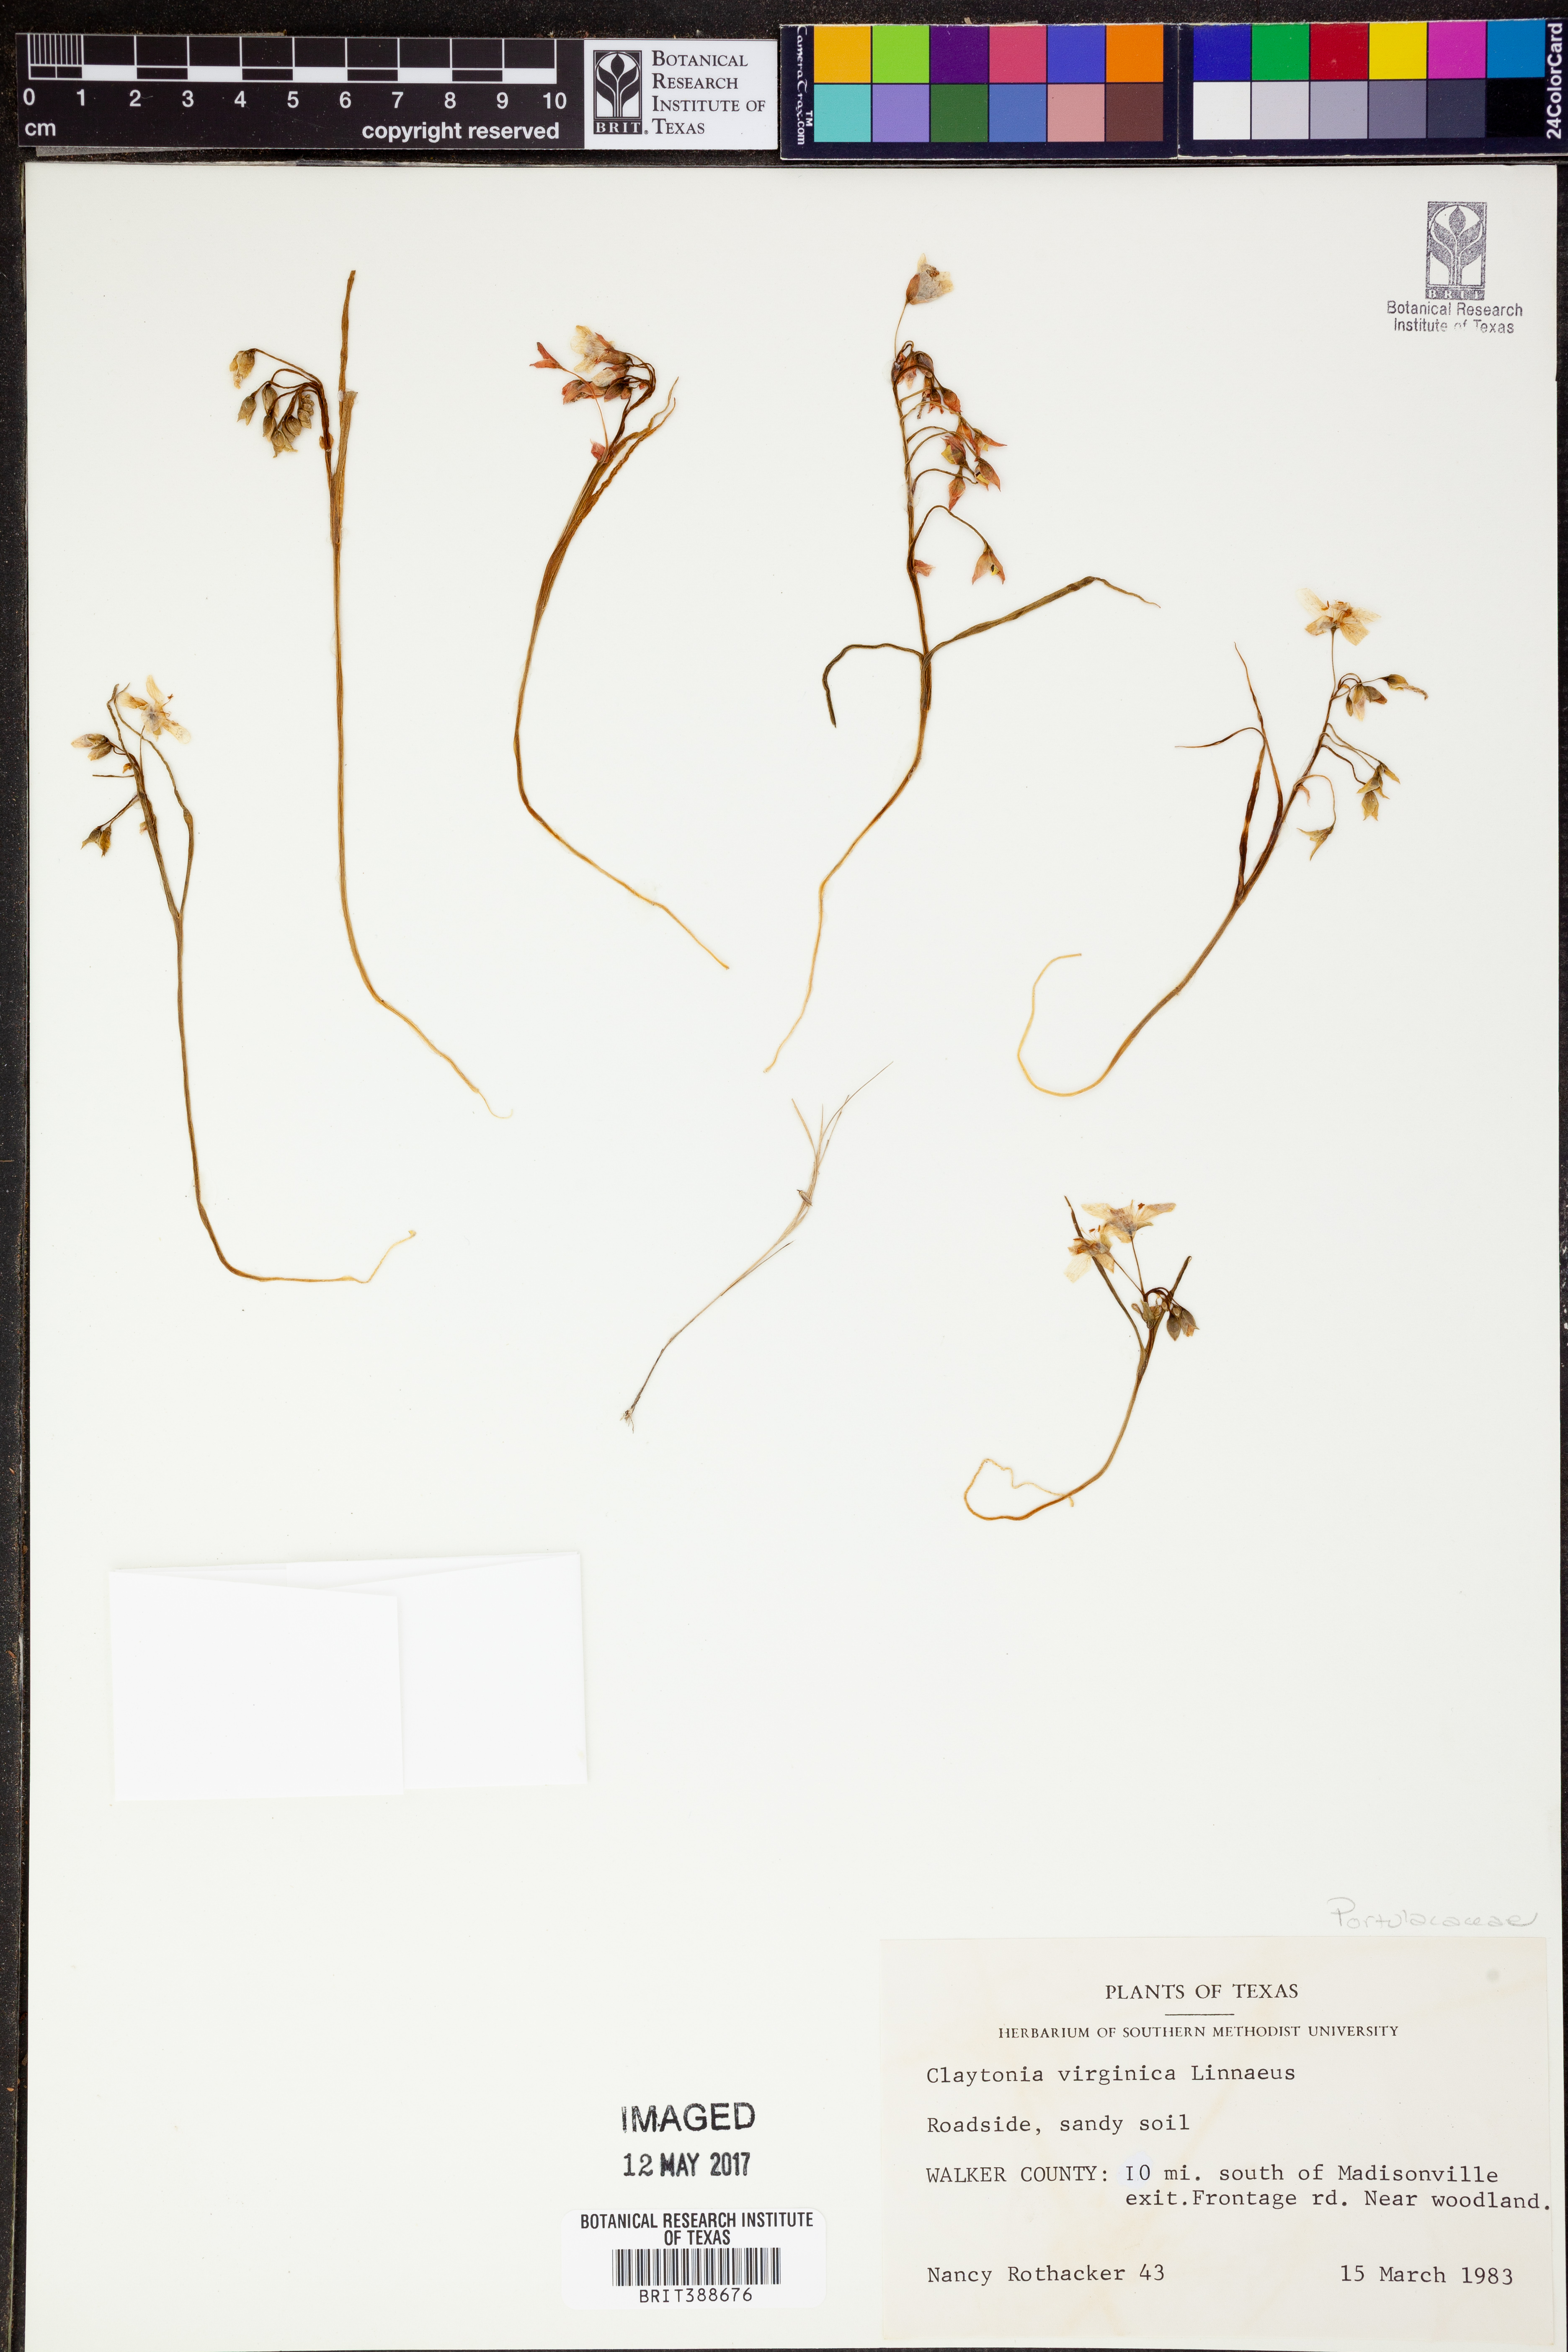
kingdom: Plantae
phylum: Tracheophyta
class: Magnoliopsida
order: Caryophyllales
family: Montiaceae
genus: Claytonia
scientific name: Claytonia virginica
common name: Virginia springbeauty
